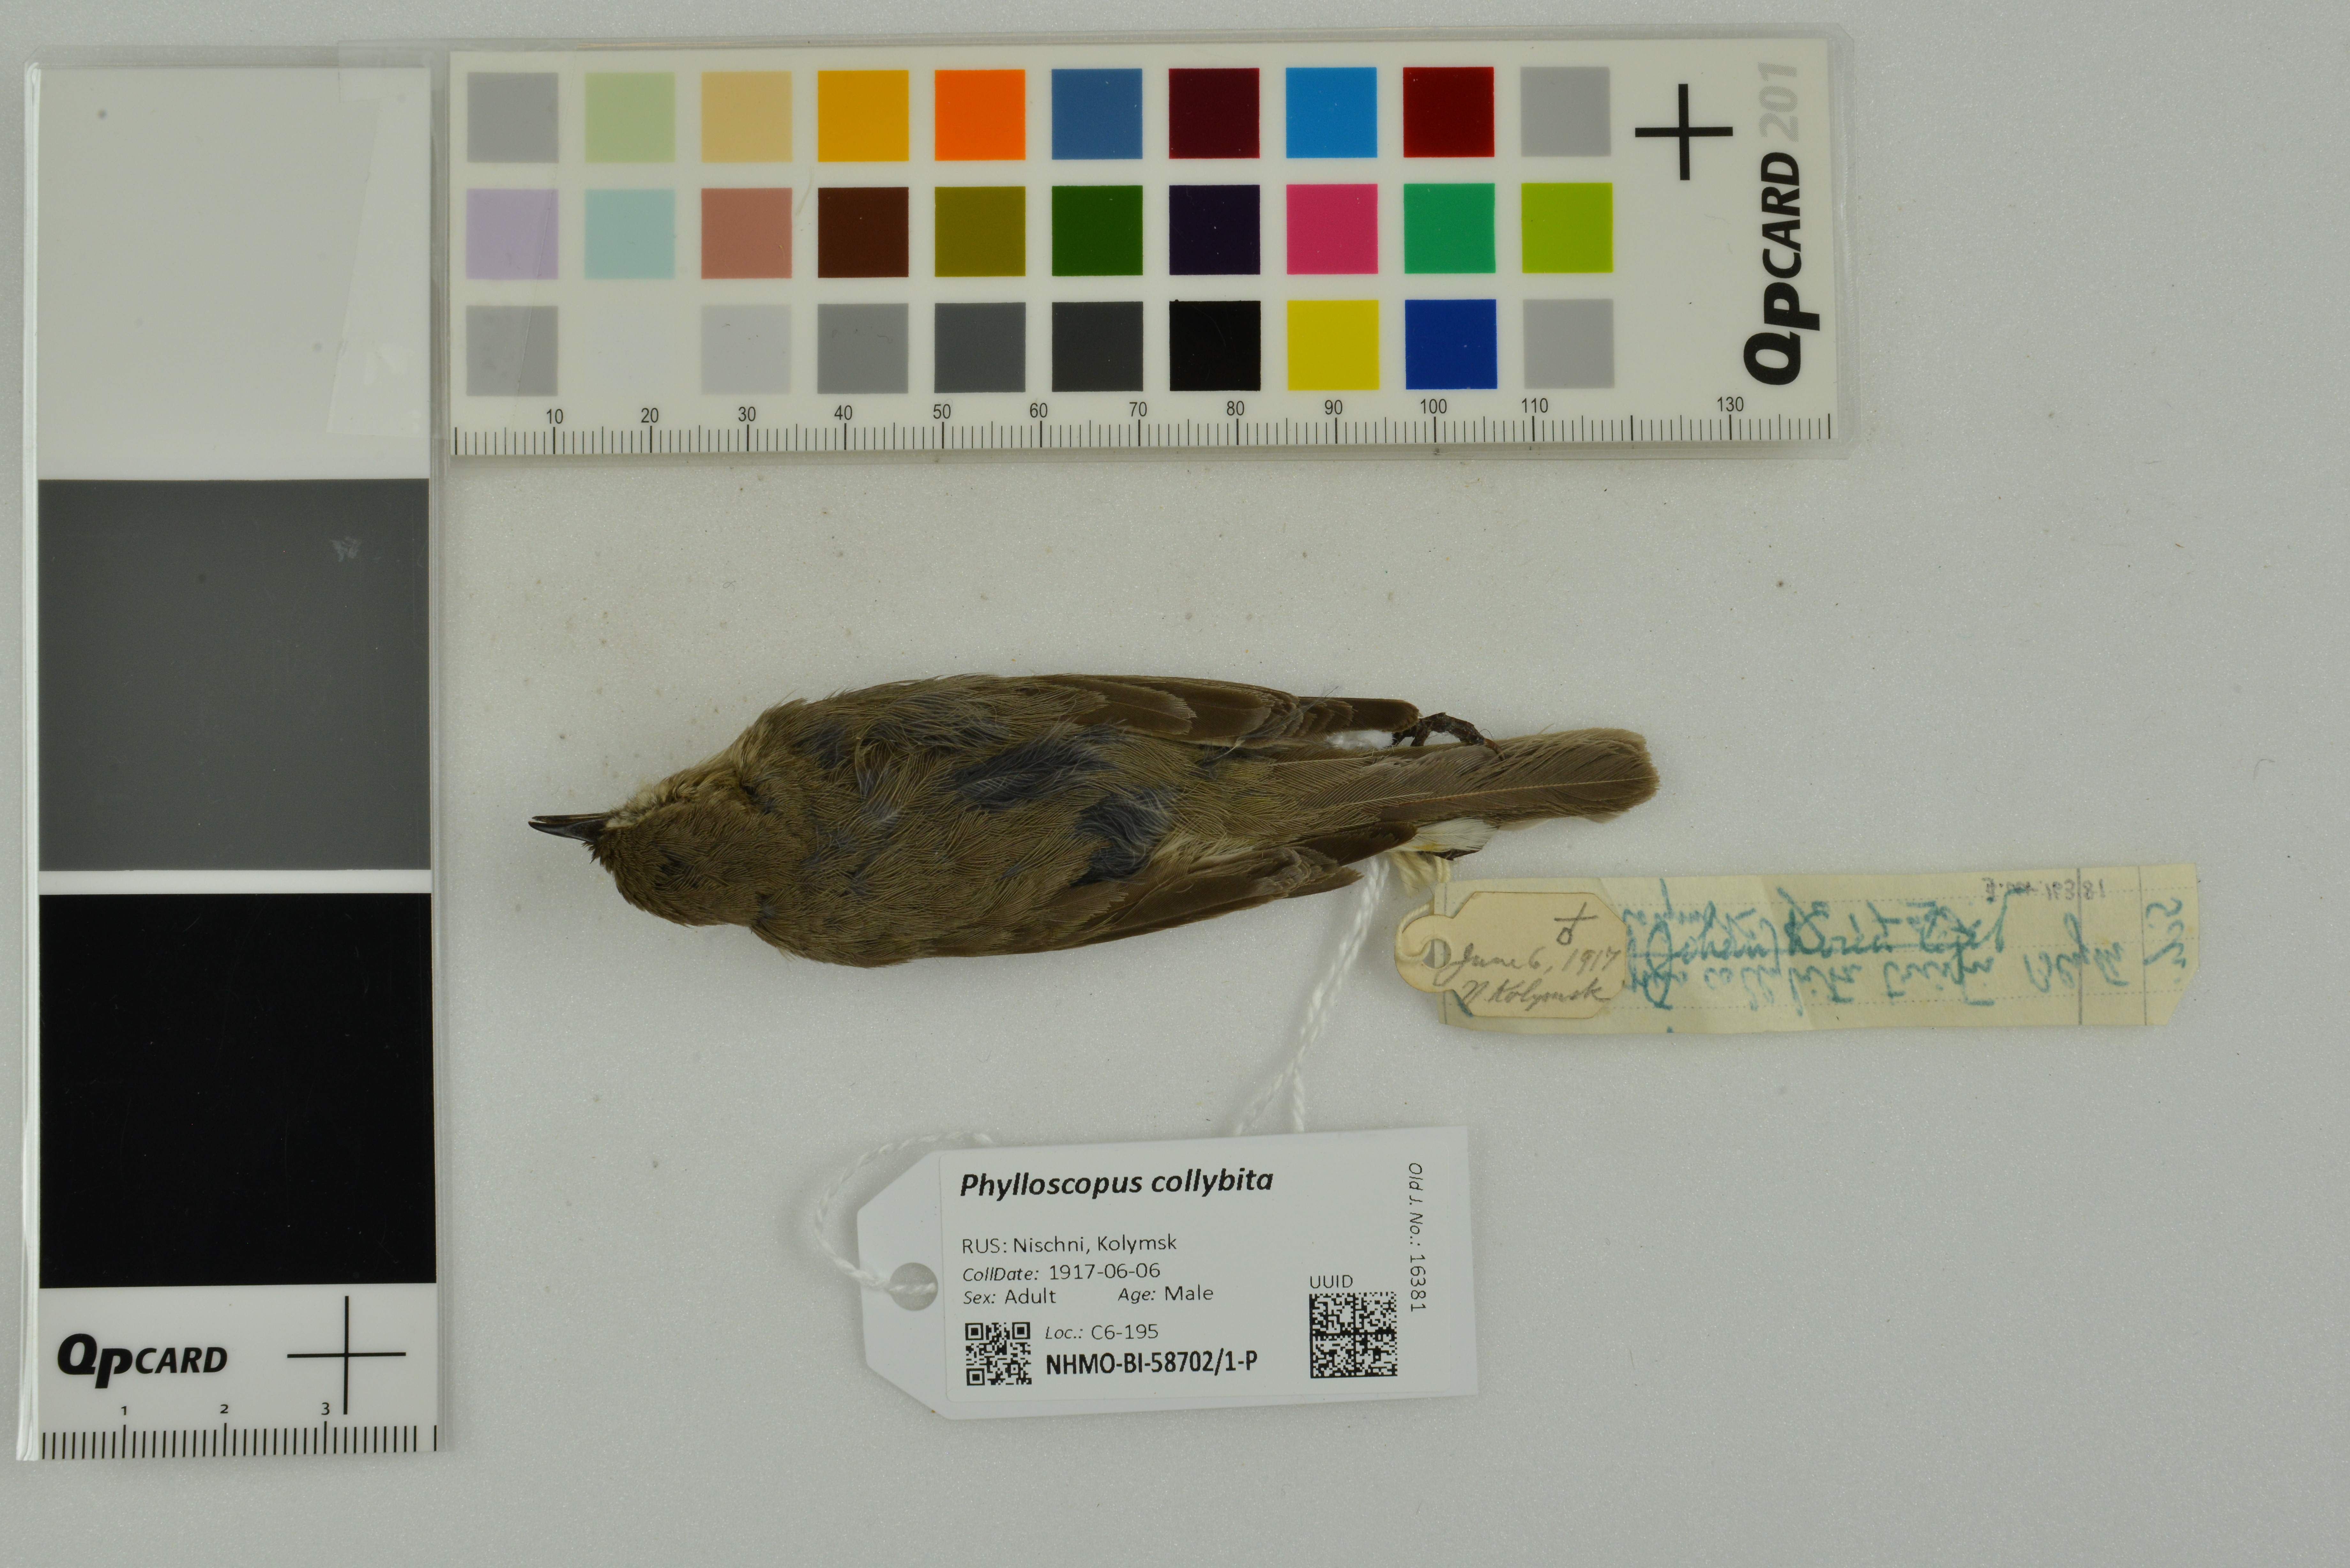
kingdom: Animalia
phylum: Chordata
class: Aves
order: Passeriformes
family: Phylloscopidae
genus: Phylloscopus
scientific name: Phylloscopus collybita
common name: Common chiffchaff
